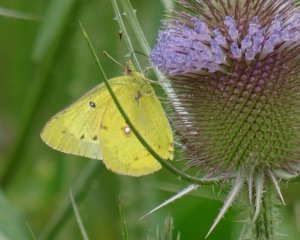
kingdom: Animalia
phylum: Arthropoda
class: Insecta
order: Lepidoptera
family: Pieridae
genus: Colias
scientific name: Colias philodice
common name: Clouded Sulphur
